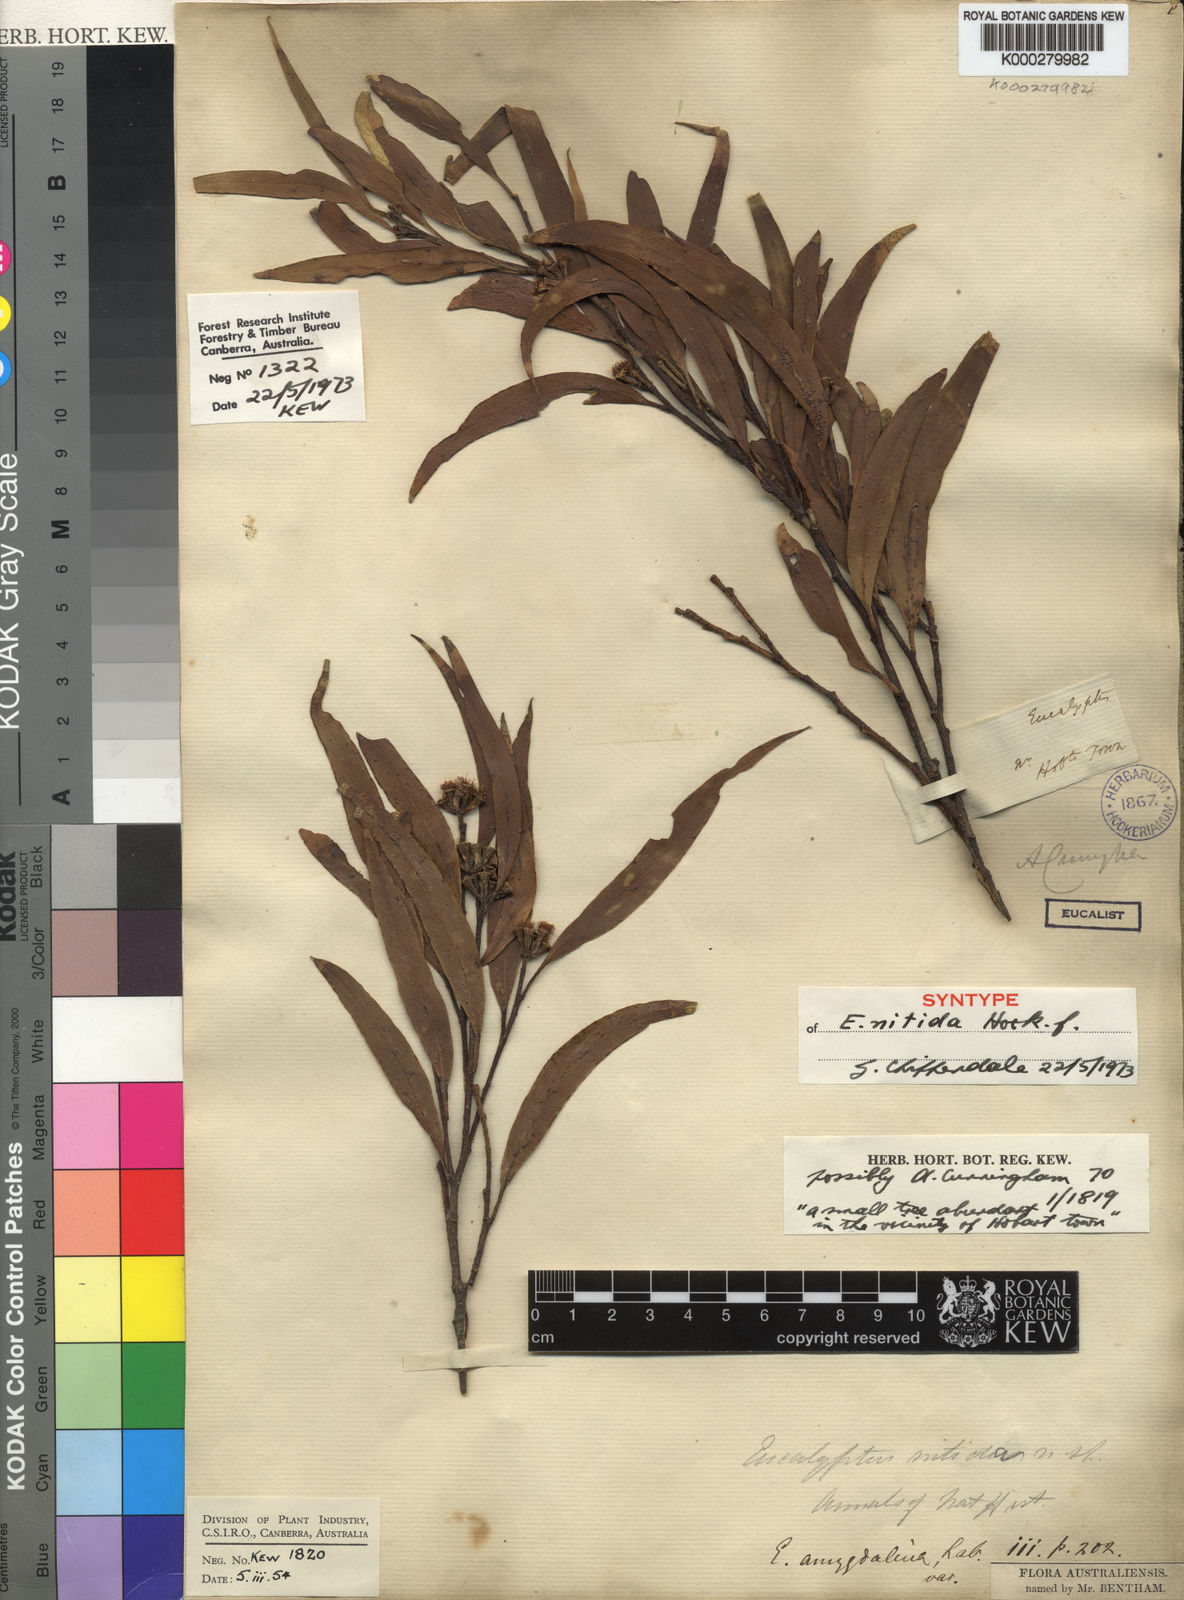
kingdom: Plantae
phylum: Tracheophyta
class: Magnoliopsida
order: Myrtales
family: Myrtaceae
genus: Eucalyptus
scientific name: Eucalyptus nitida
